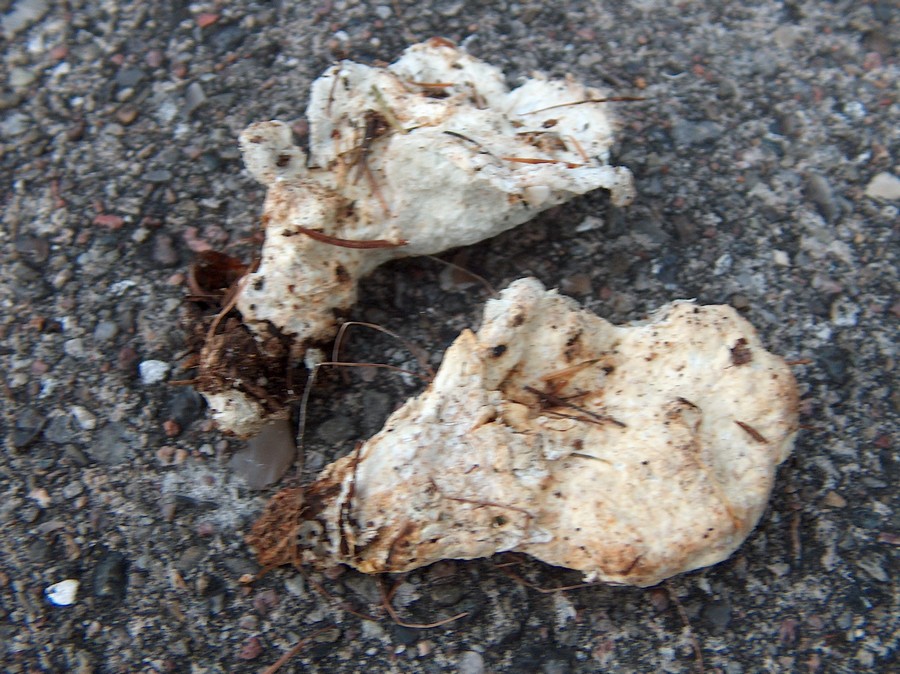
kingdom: Fungi
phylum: Basidiomycota
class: Agaricomycetes
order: Polyporales
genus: Calcipostia
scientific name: Calcipostia guttulata
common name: dråbe-kødporesvamp
